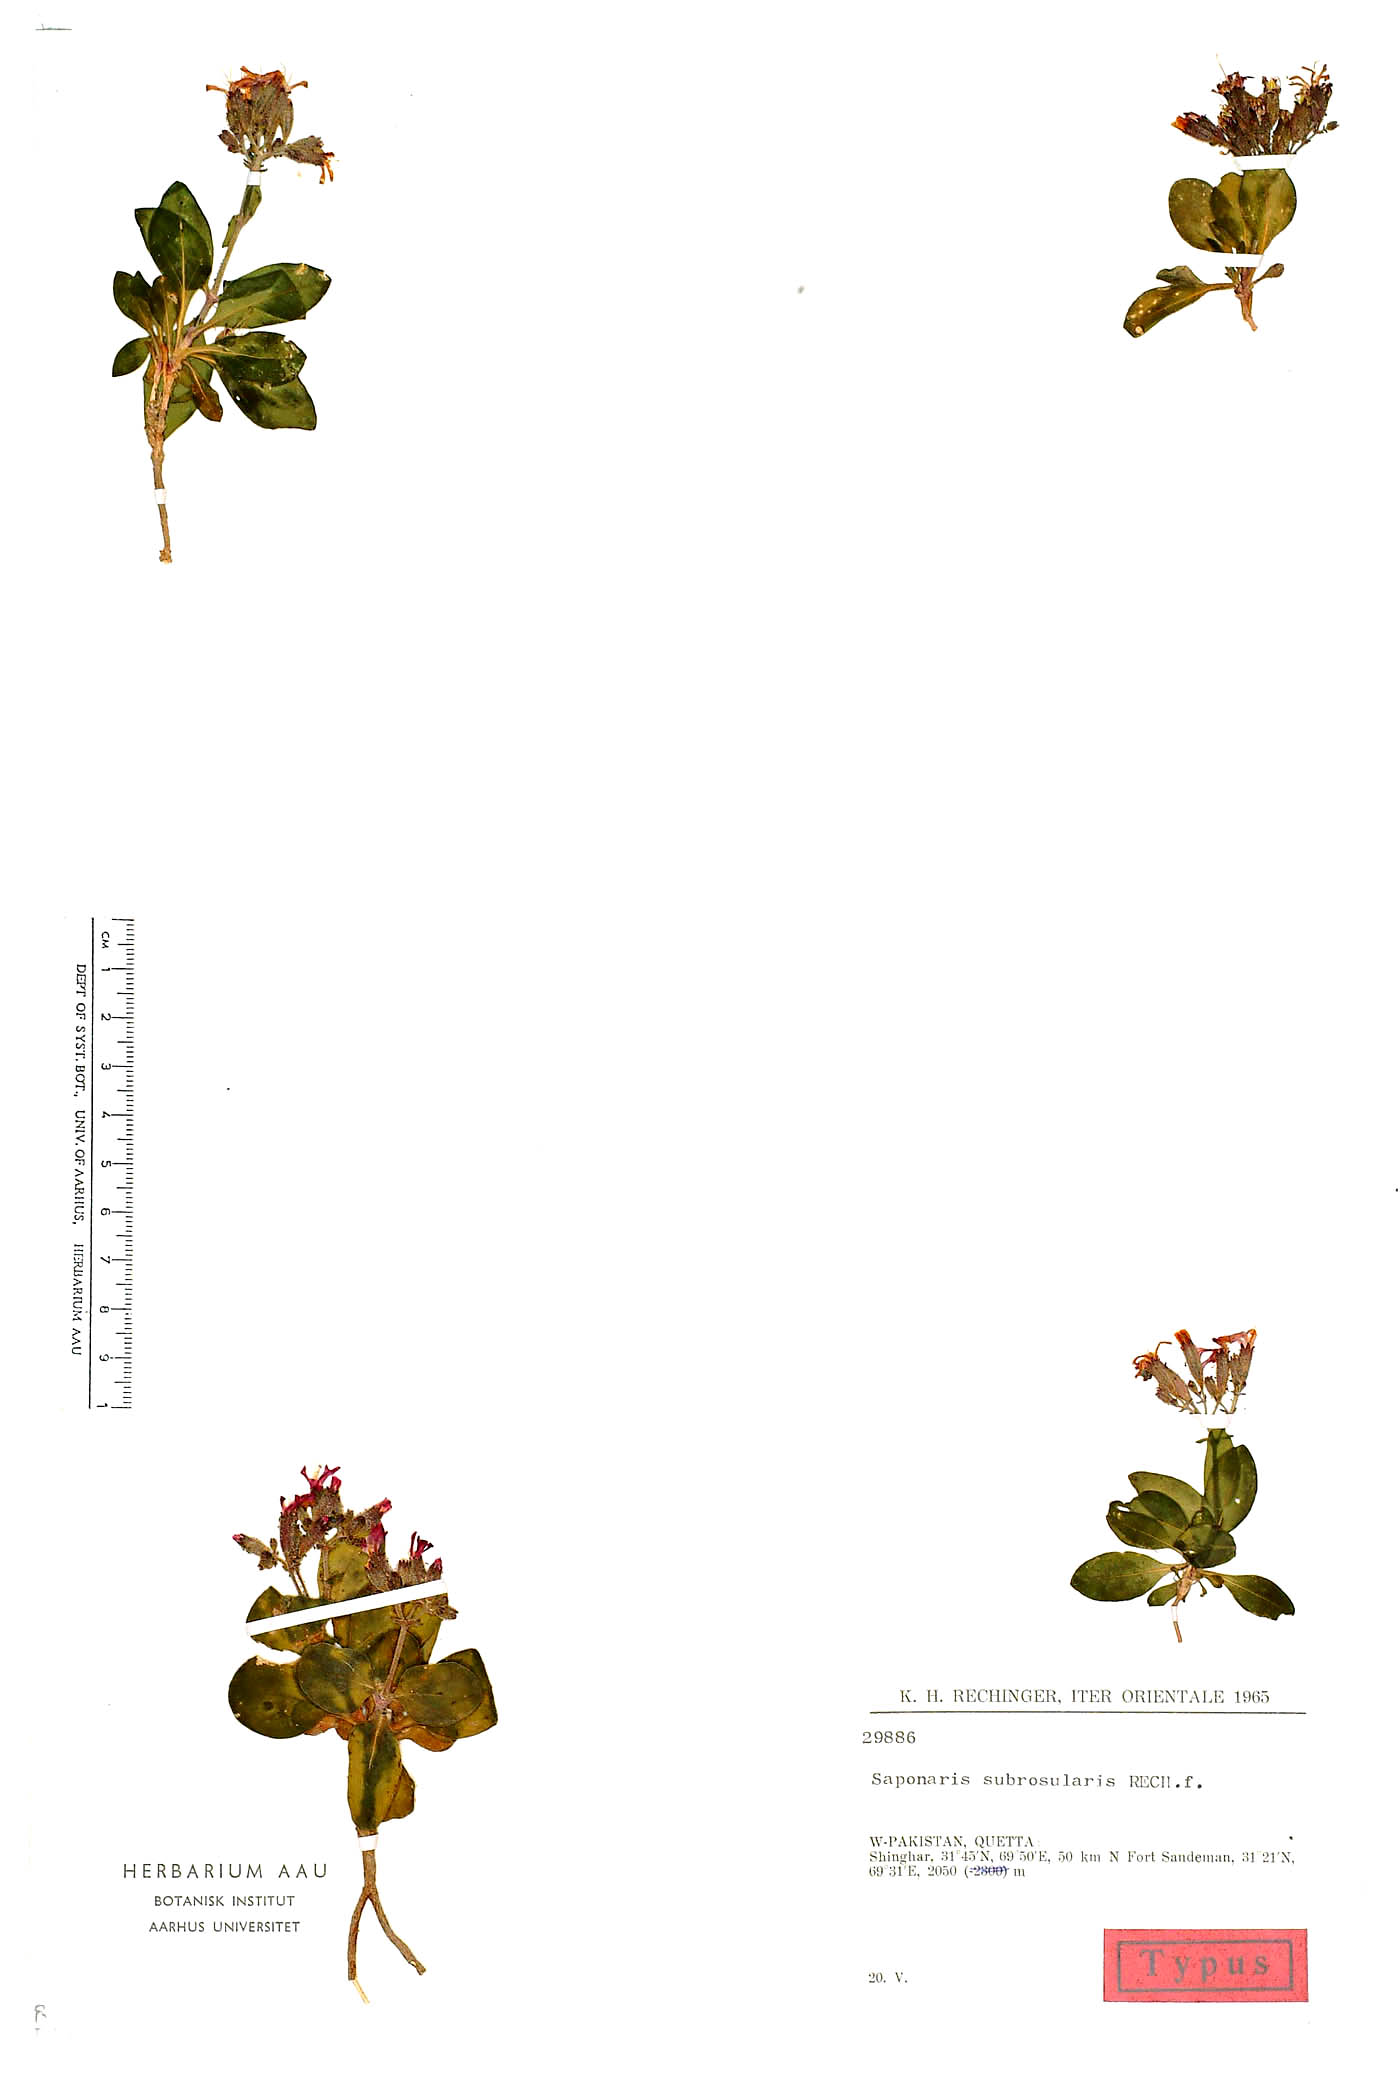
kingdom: Plantae
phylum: Tracheophyta
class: Magnoliopsida
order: Caryophyllales
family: Caryophyllaceae
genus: Saponaria
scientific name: Saponaria subrosularis
